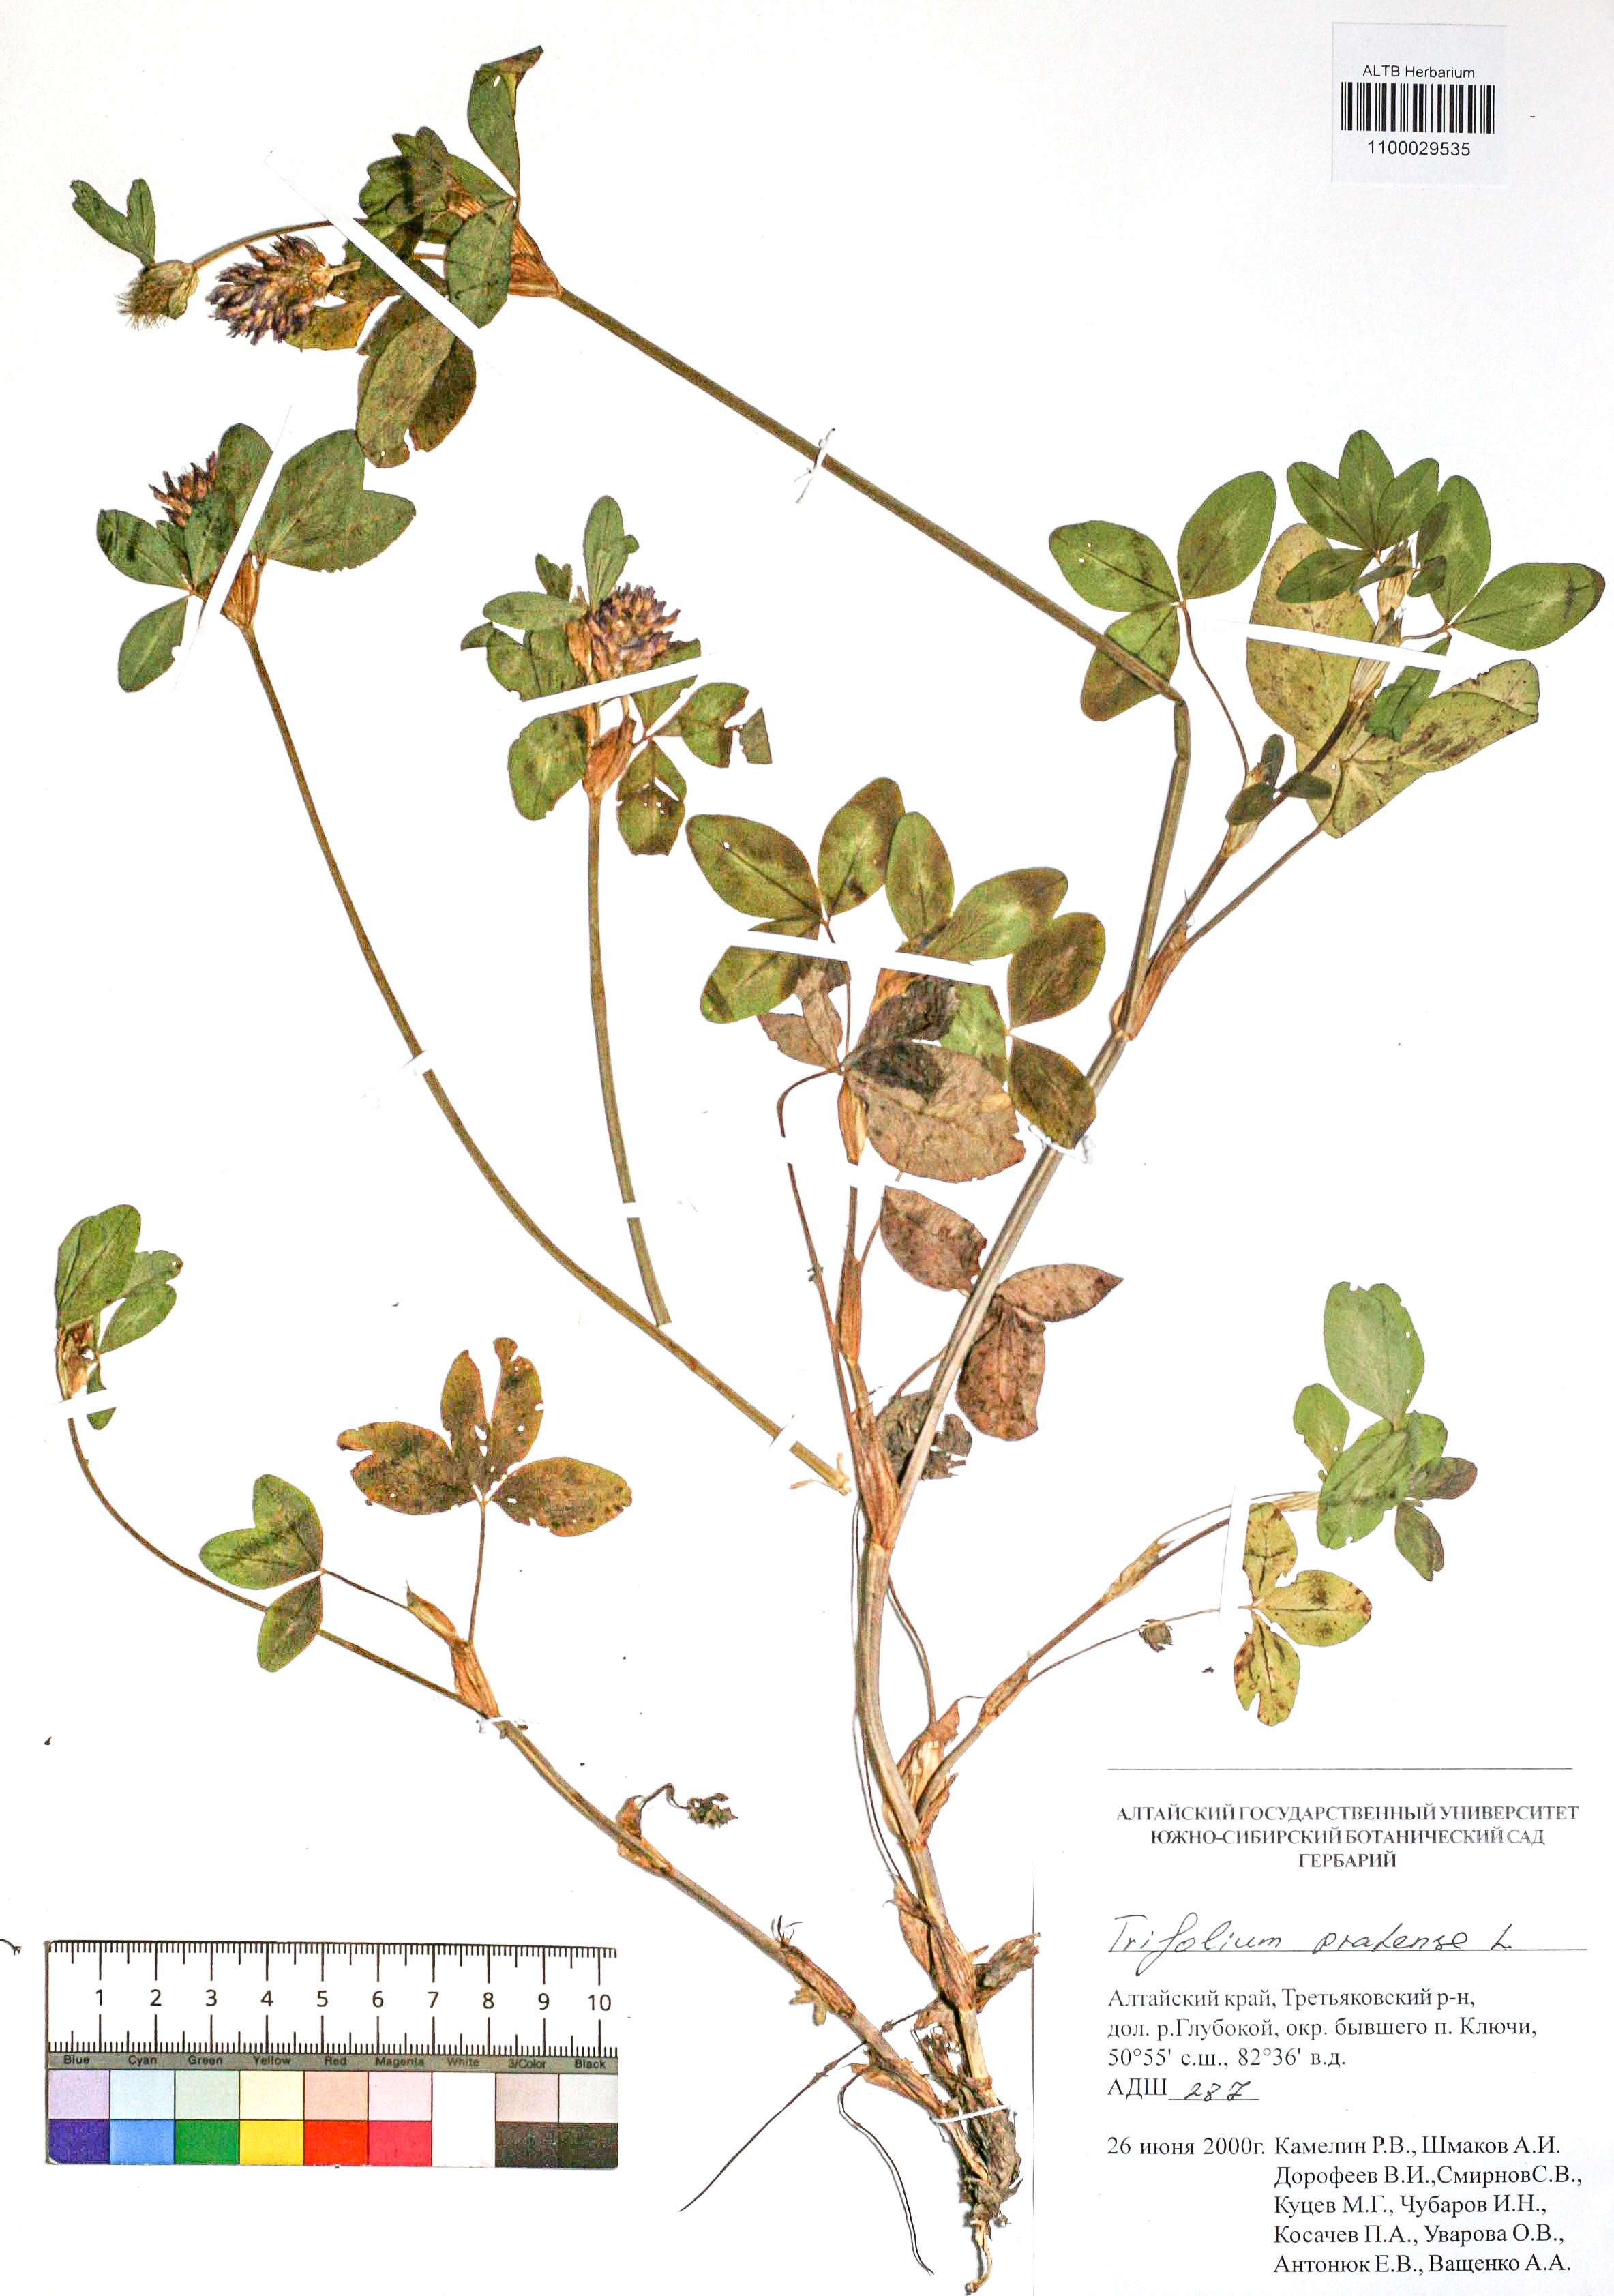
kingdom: Plantae
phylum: Tracheophyta
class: Magnoliopsida
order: Fabales
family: Fabaceae
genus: Trifolium
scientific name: Trifolium pratense
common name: Red clover
